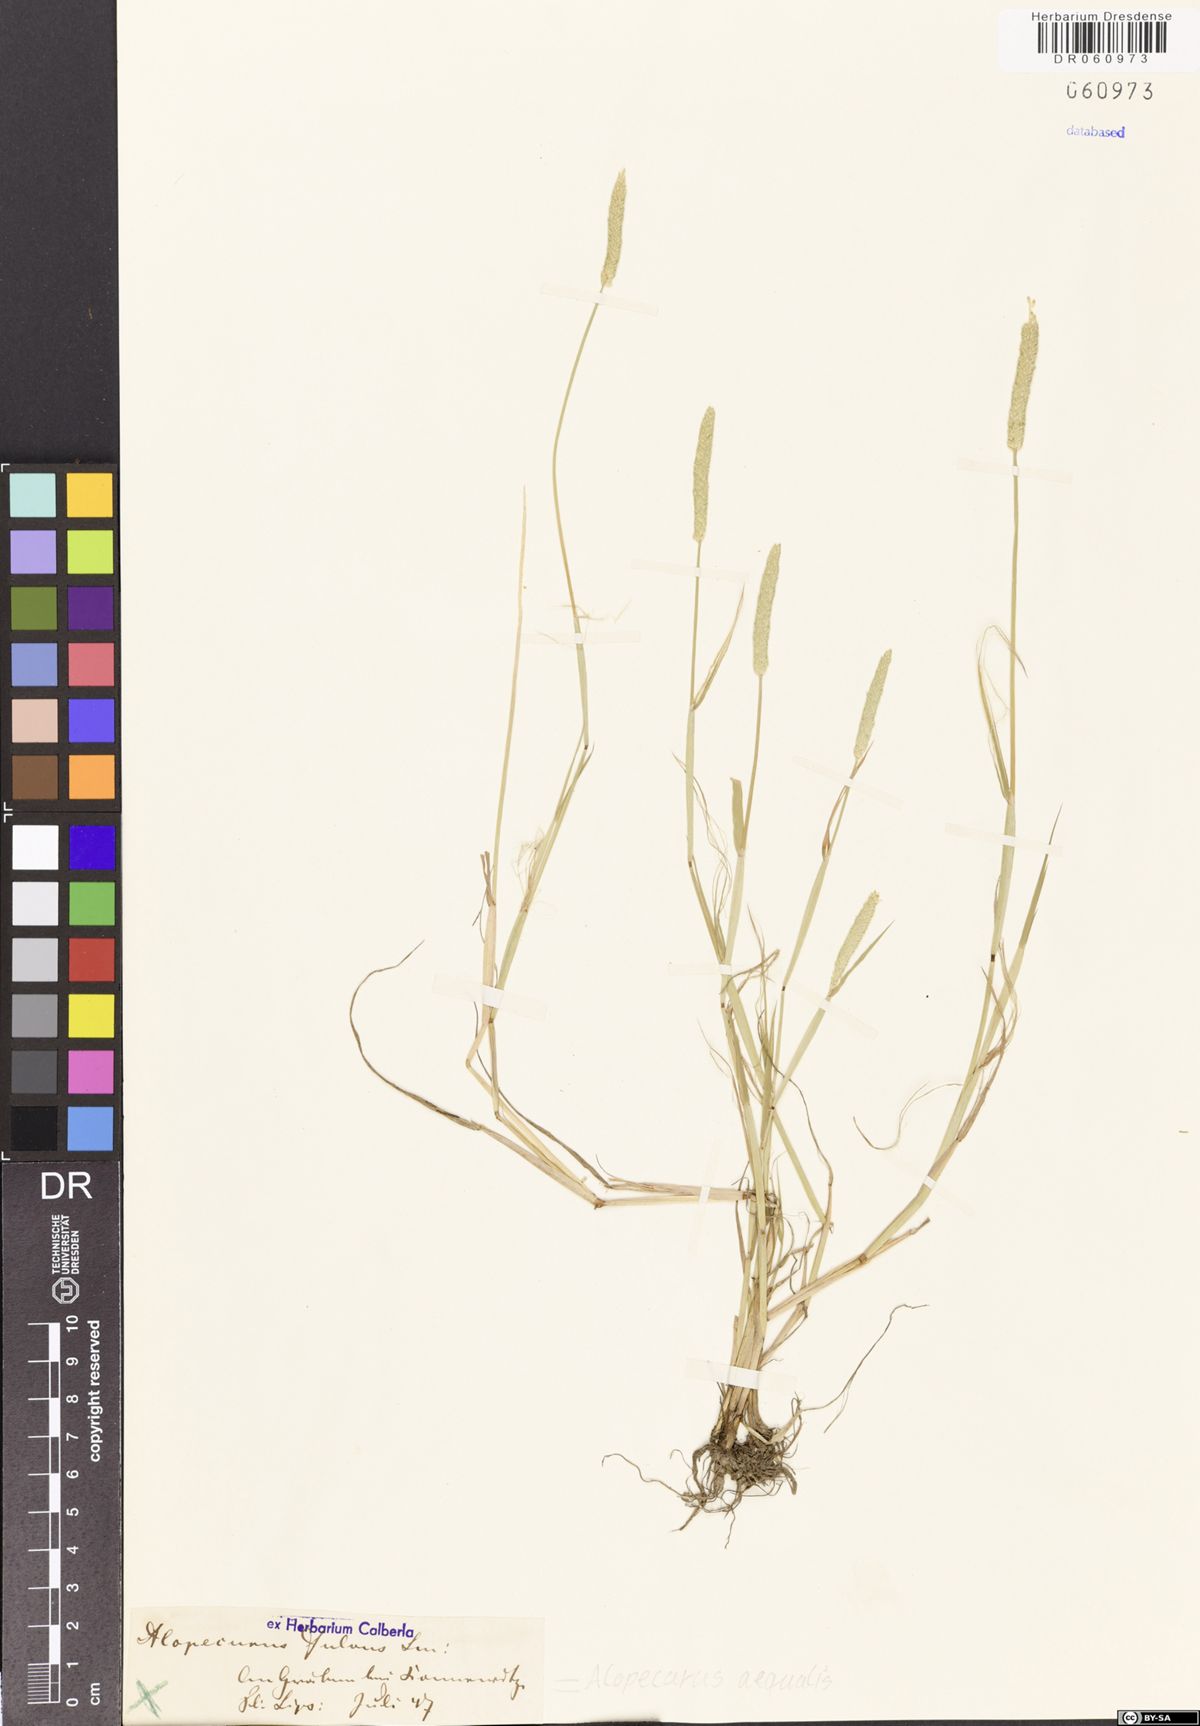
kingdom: Plantae
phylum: Tracheophyta
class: Liliopsida
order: Poales
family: Poaceae
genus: Alopecurus
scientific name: Alopecurus aequalis
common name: Orange foxtail
